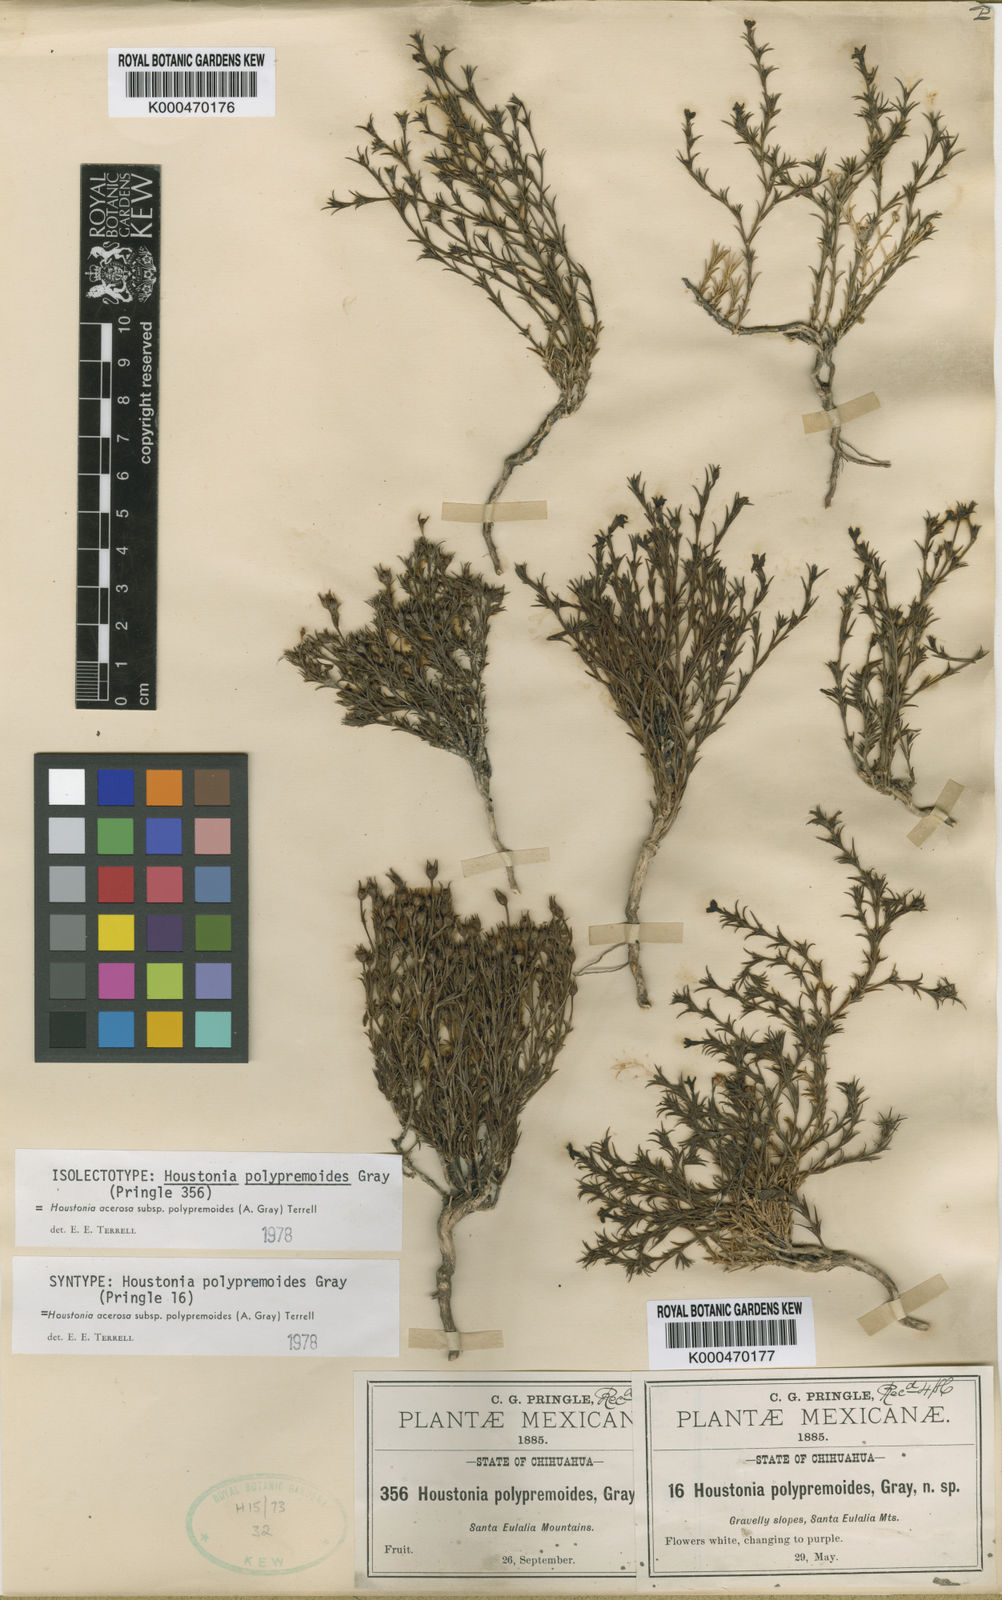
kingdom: Plantae
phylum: Tracheophyta
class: Magnoliopsida
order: Gentianales
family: Rubiaceae
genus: Houstonia
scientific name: Houstonia acerosa
